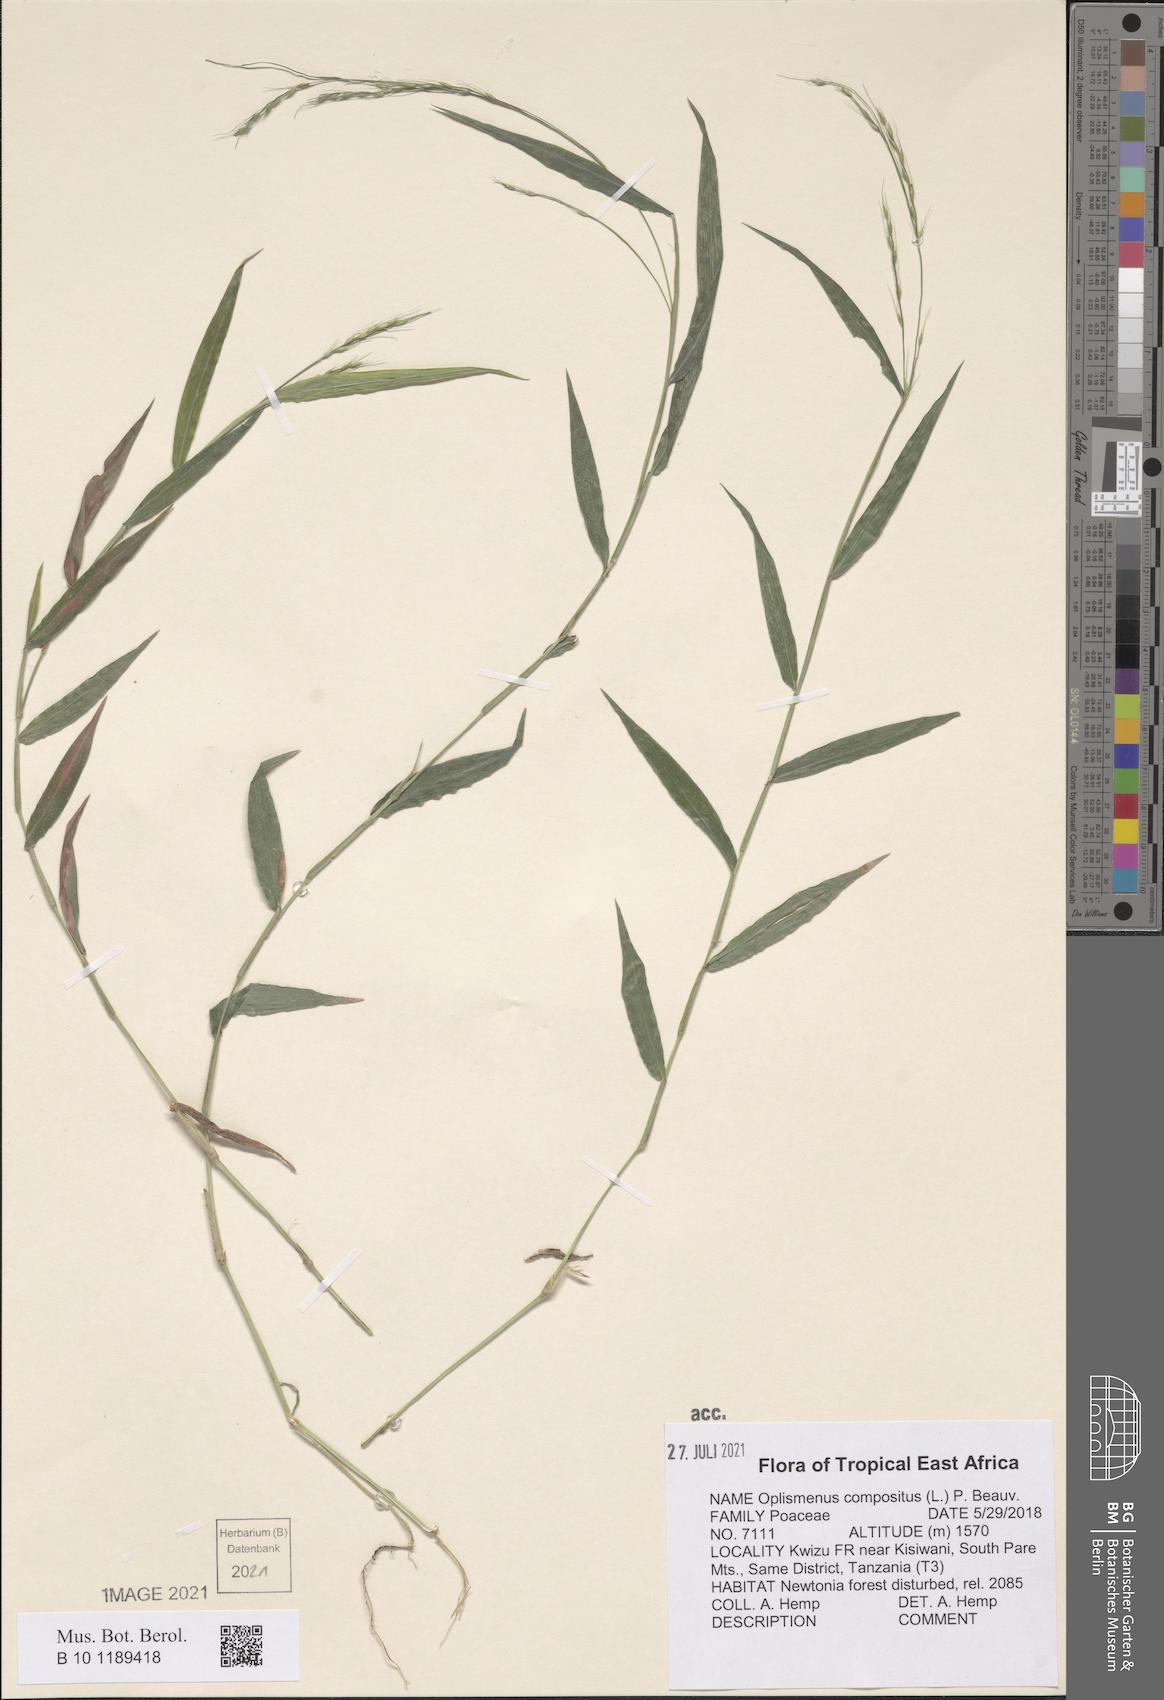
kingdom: Plantae
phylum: Tracheophyta
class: Liliopsida
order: Poales
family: Poaceae
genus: Oplismenus
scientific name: Oplismenus compositus
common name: Running mountain grass
